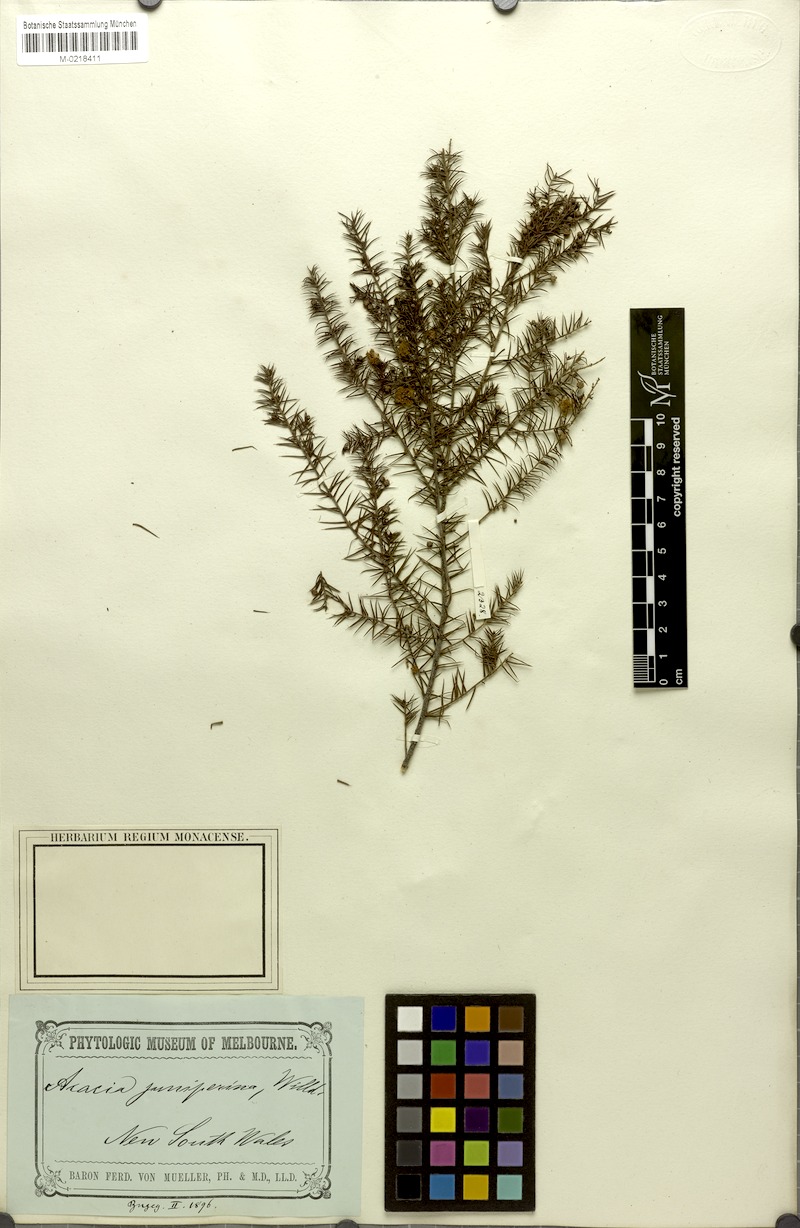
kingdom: Plantae
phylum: Tracheophyta
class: Magnoliopsida
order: Fabales
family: Fabaceae
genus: Acacia
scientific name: Acacia ulicifolia
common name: Juniper wattle
